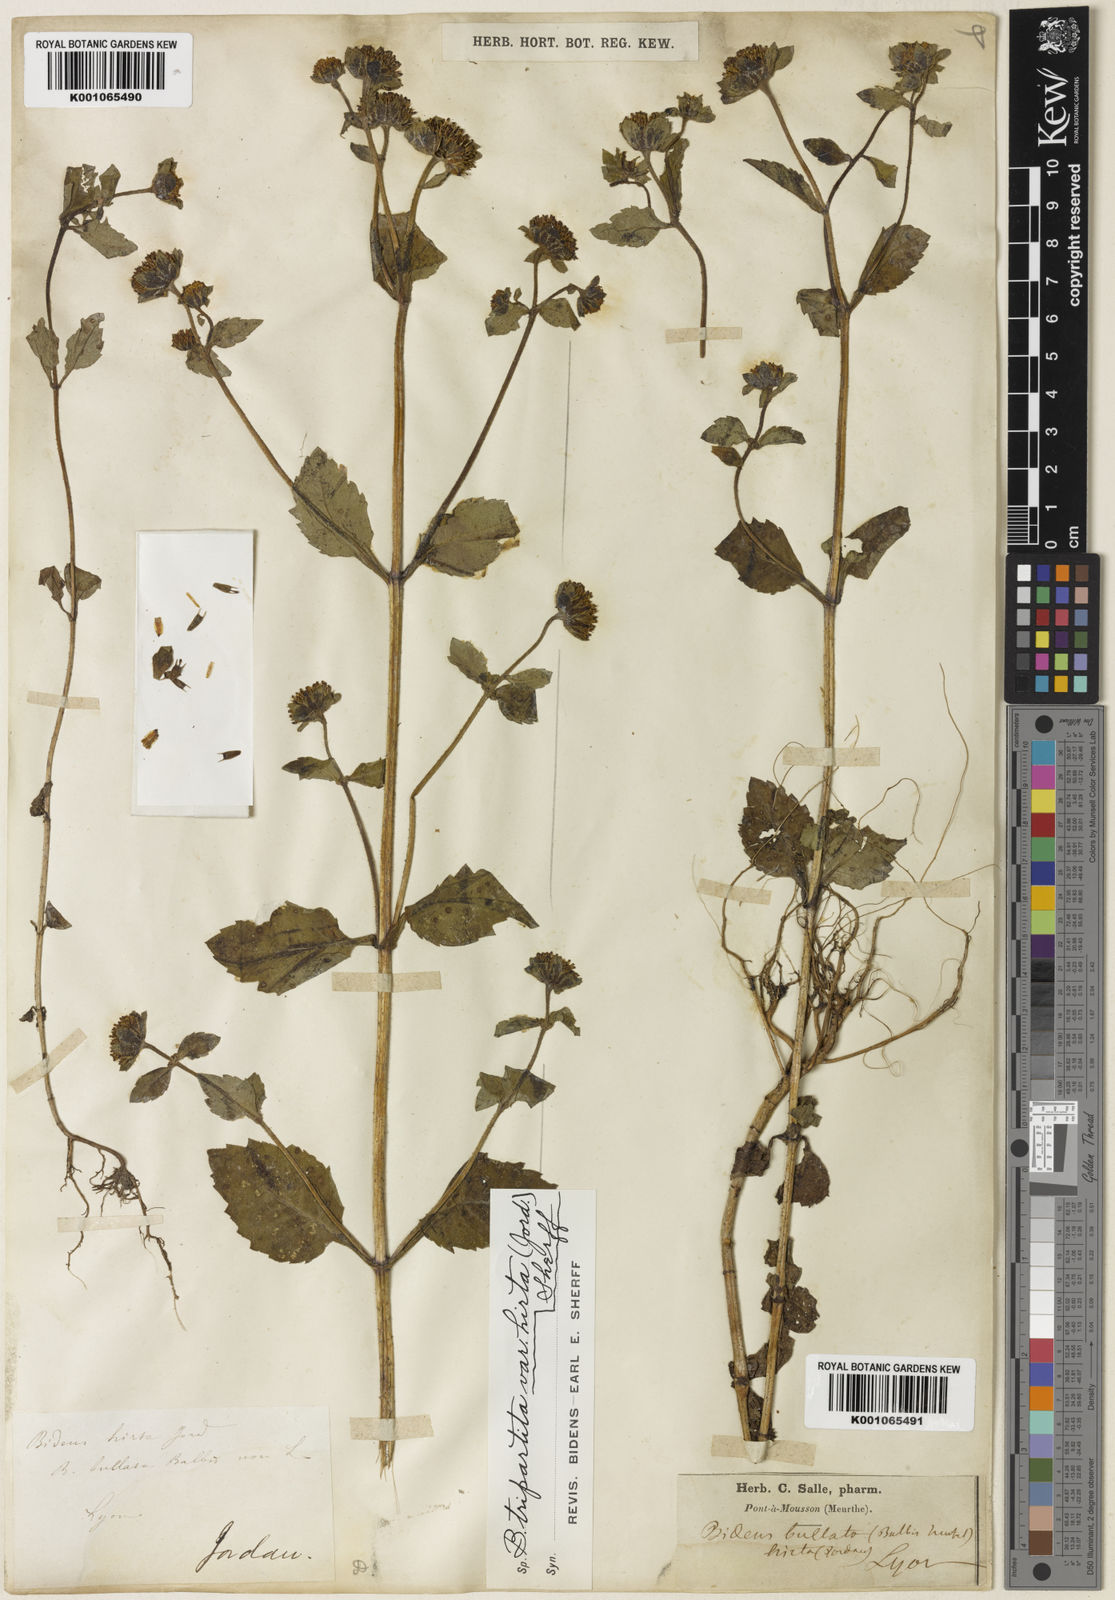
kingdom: Plantae
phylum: Tracheophyta
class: Magnoliopsida
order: Asterales
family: Asteraceae
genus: Bidens
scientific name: Bidens
